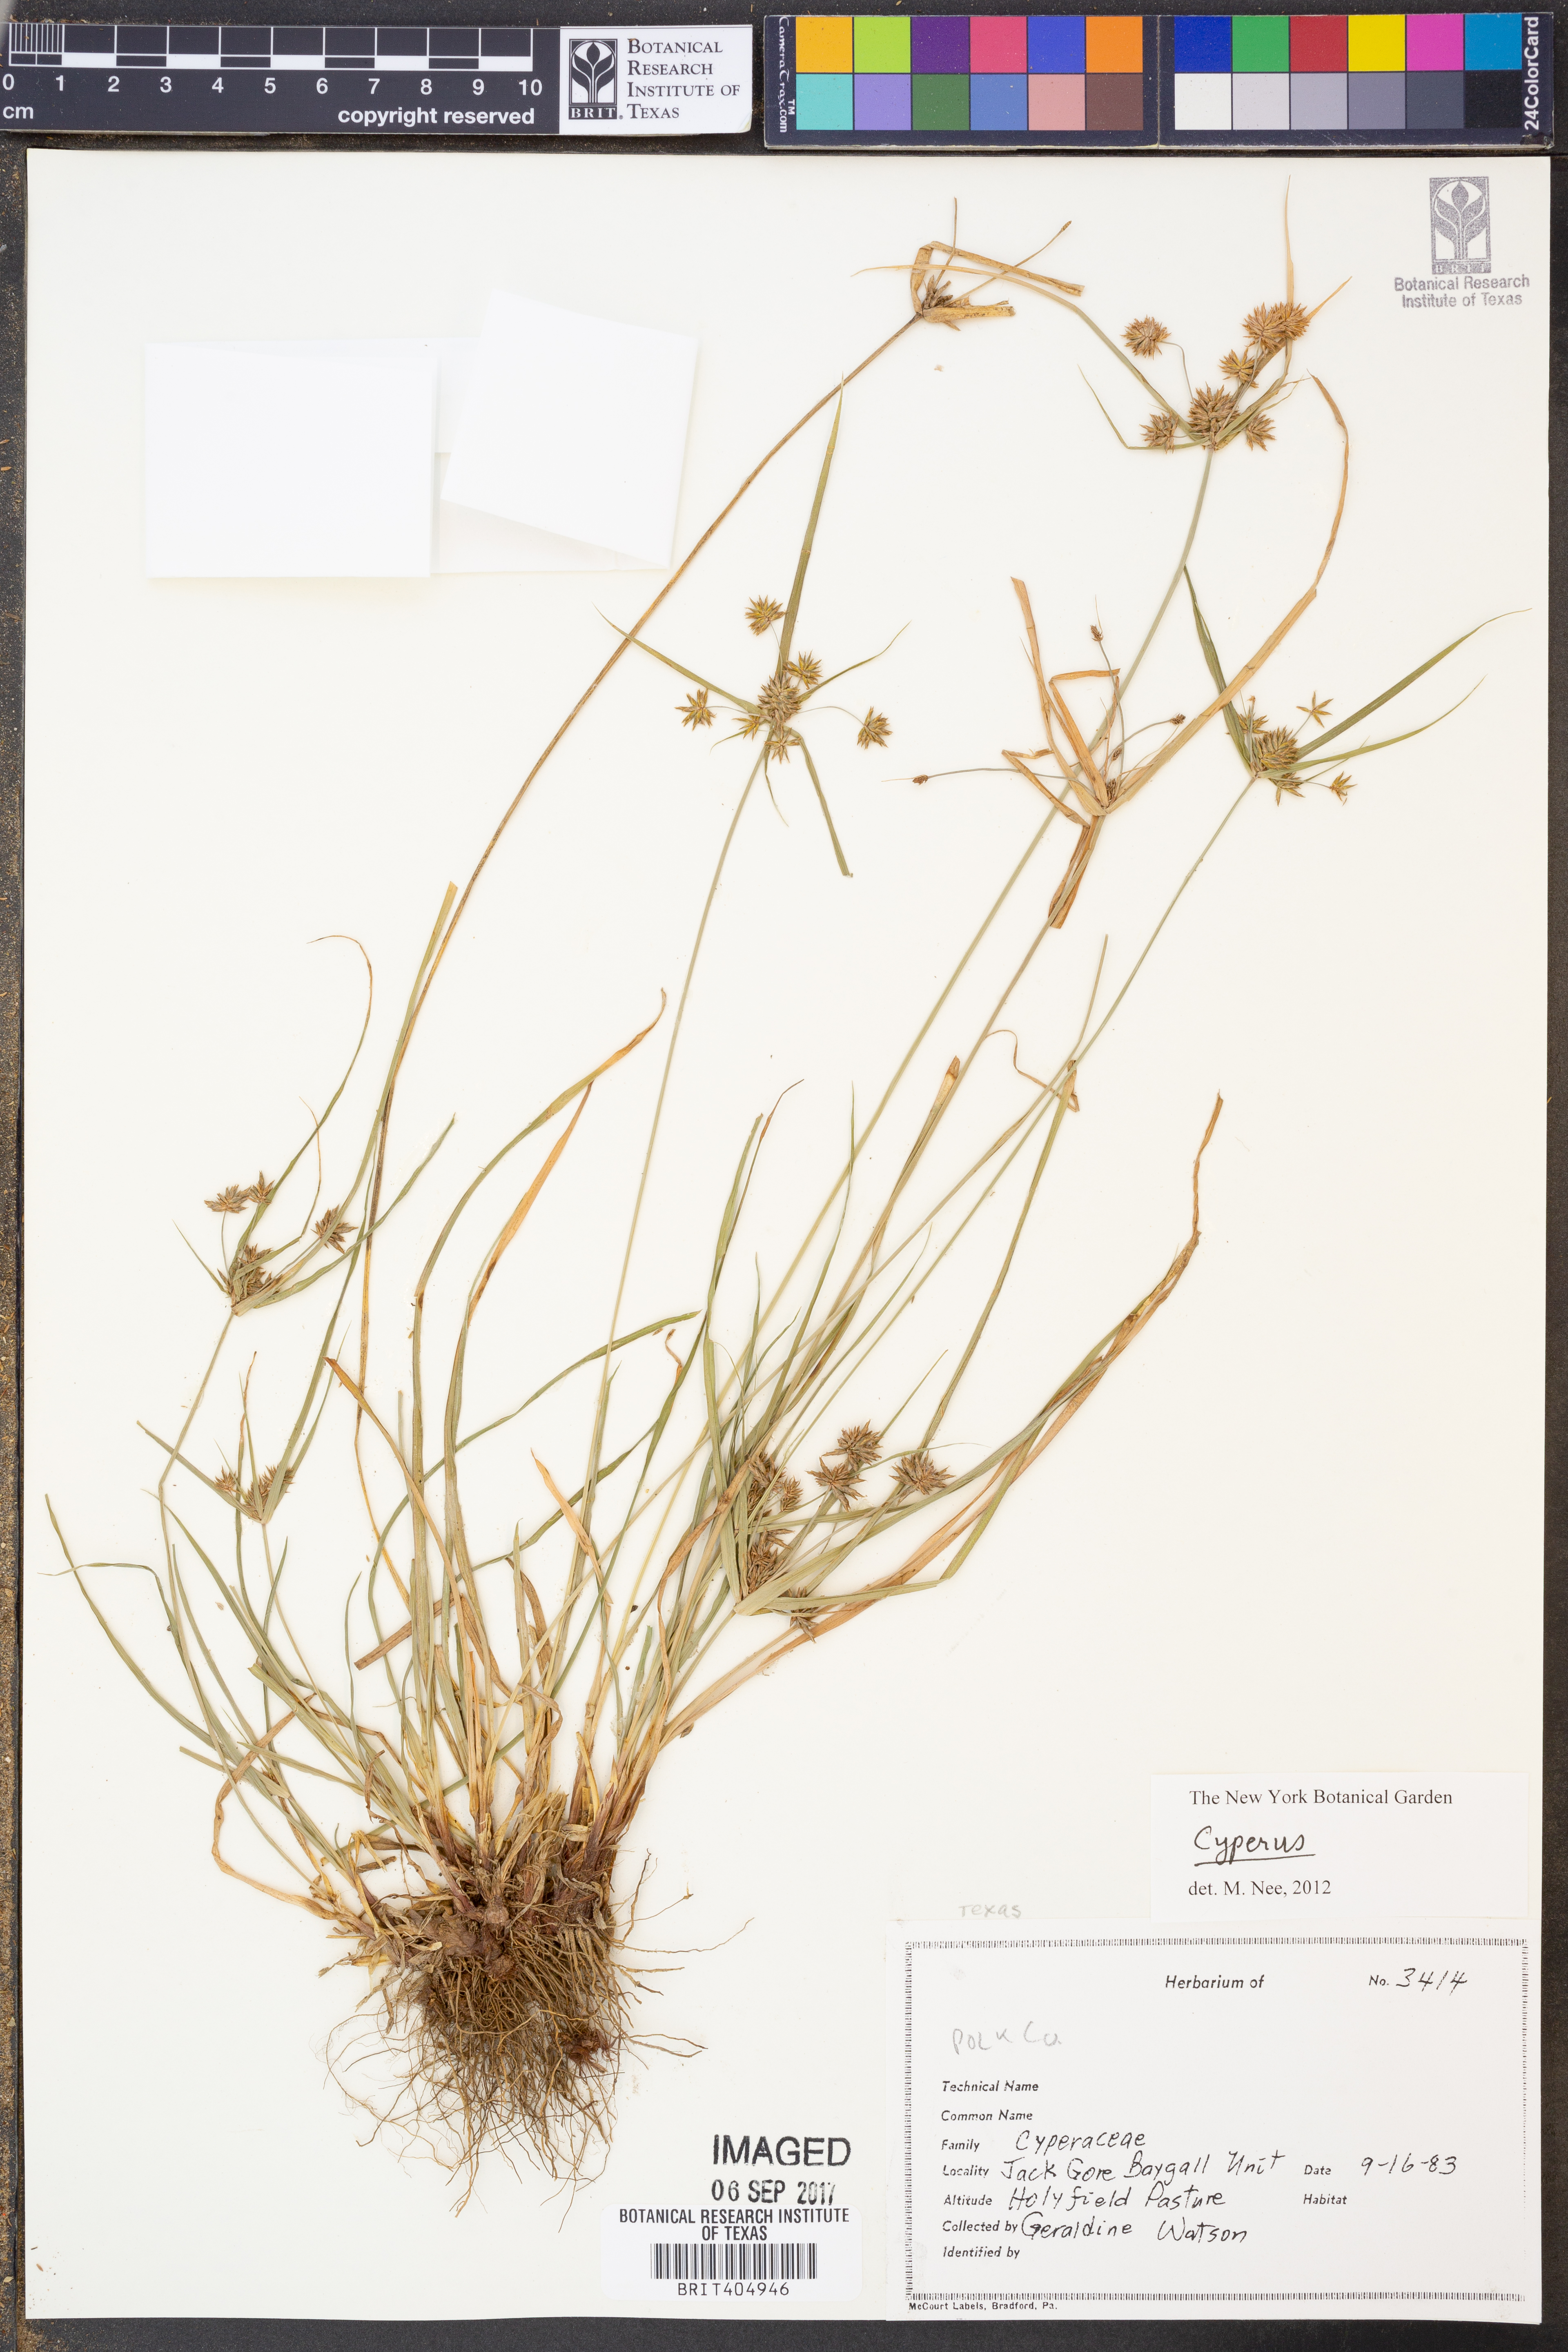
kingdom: Plantae
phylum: Tracheophyta
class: Liliopsida
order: Poales
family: Cyperaceae
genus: Cyperus
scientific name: Cyperus
